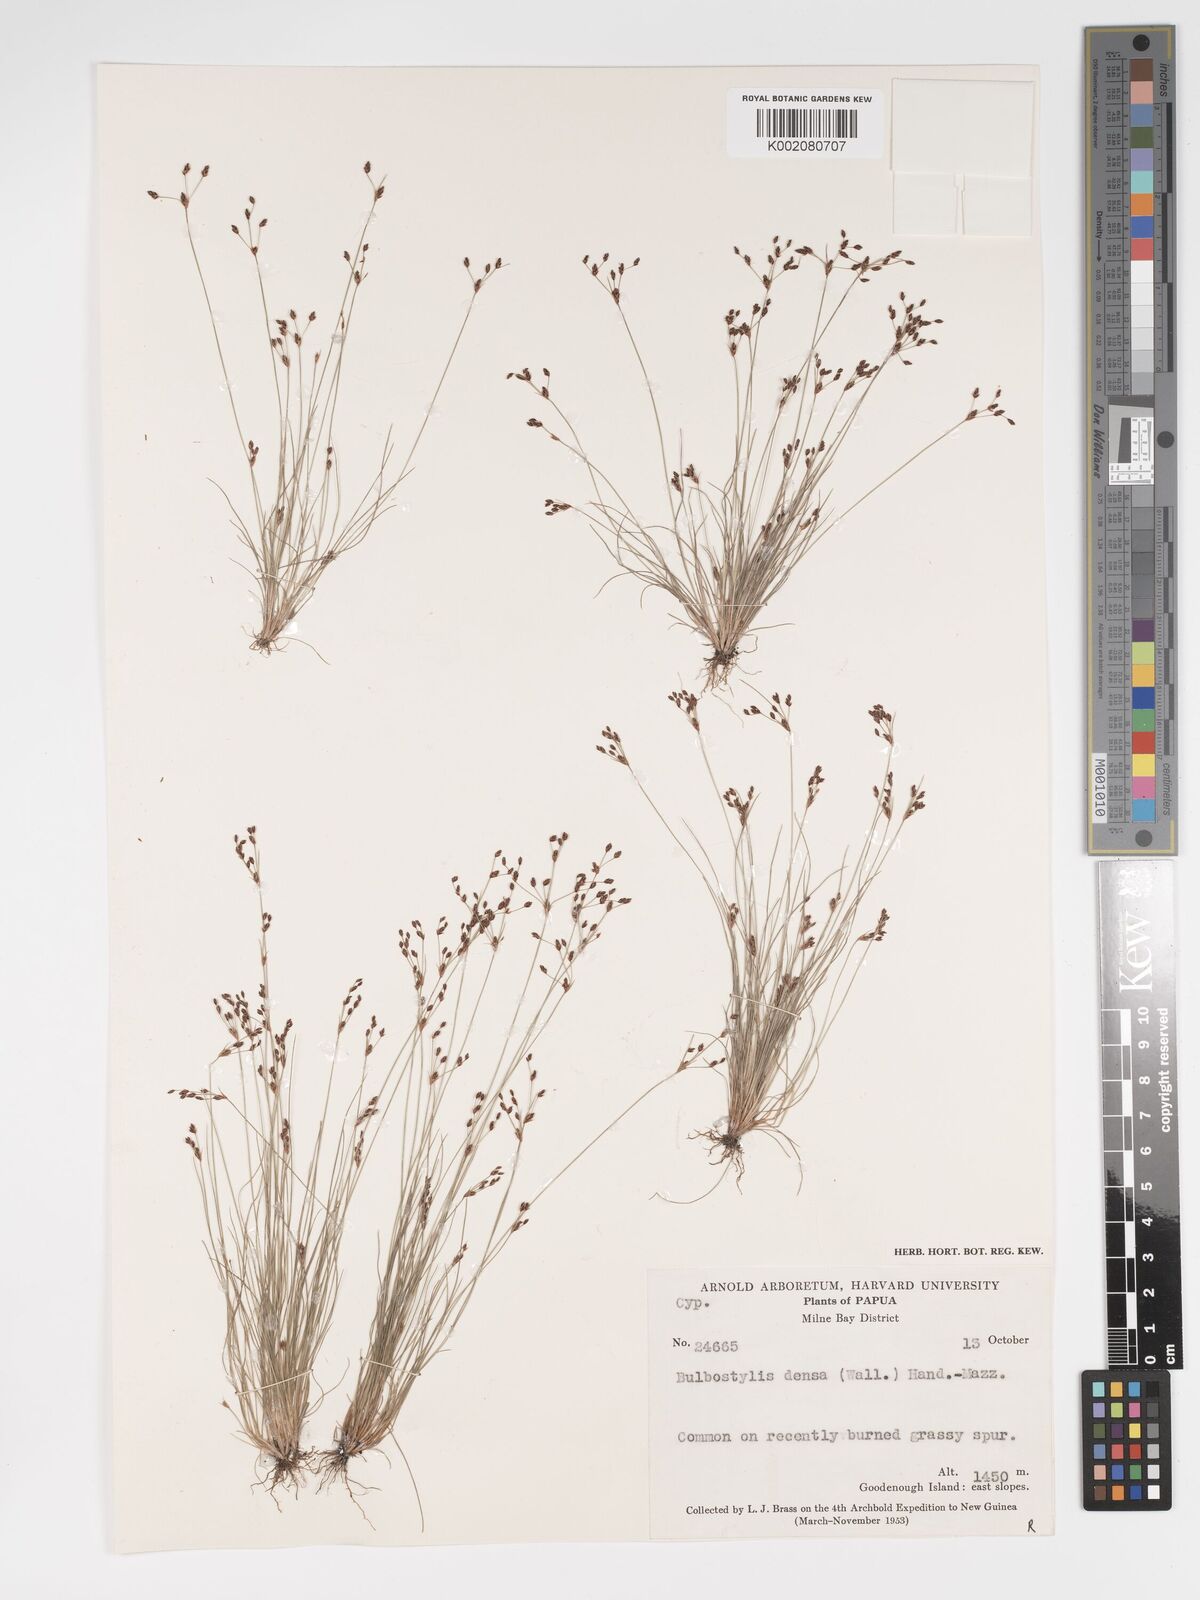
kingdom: Plantae
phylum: Tracheophyta
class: Liliopsida
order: Poales
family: Cyperaceae
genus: Bulbostylis
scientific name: Bulbostylis densa
